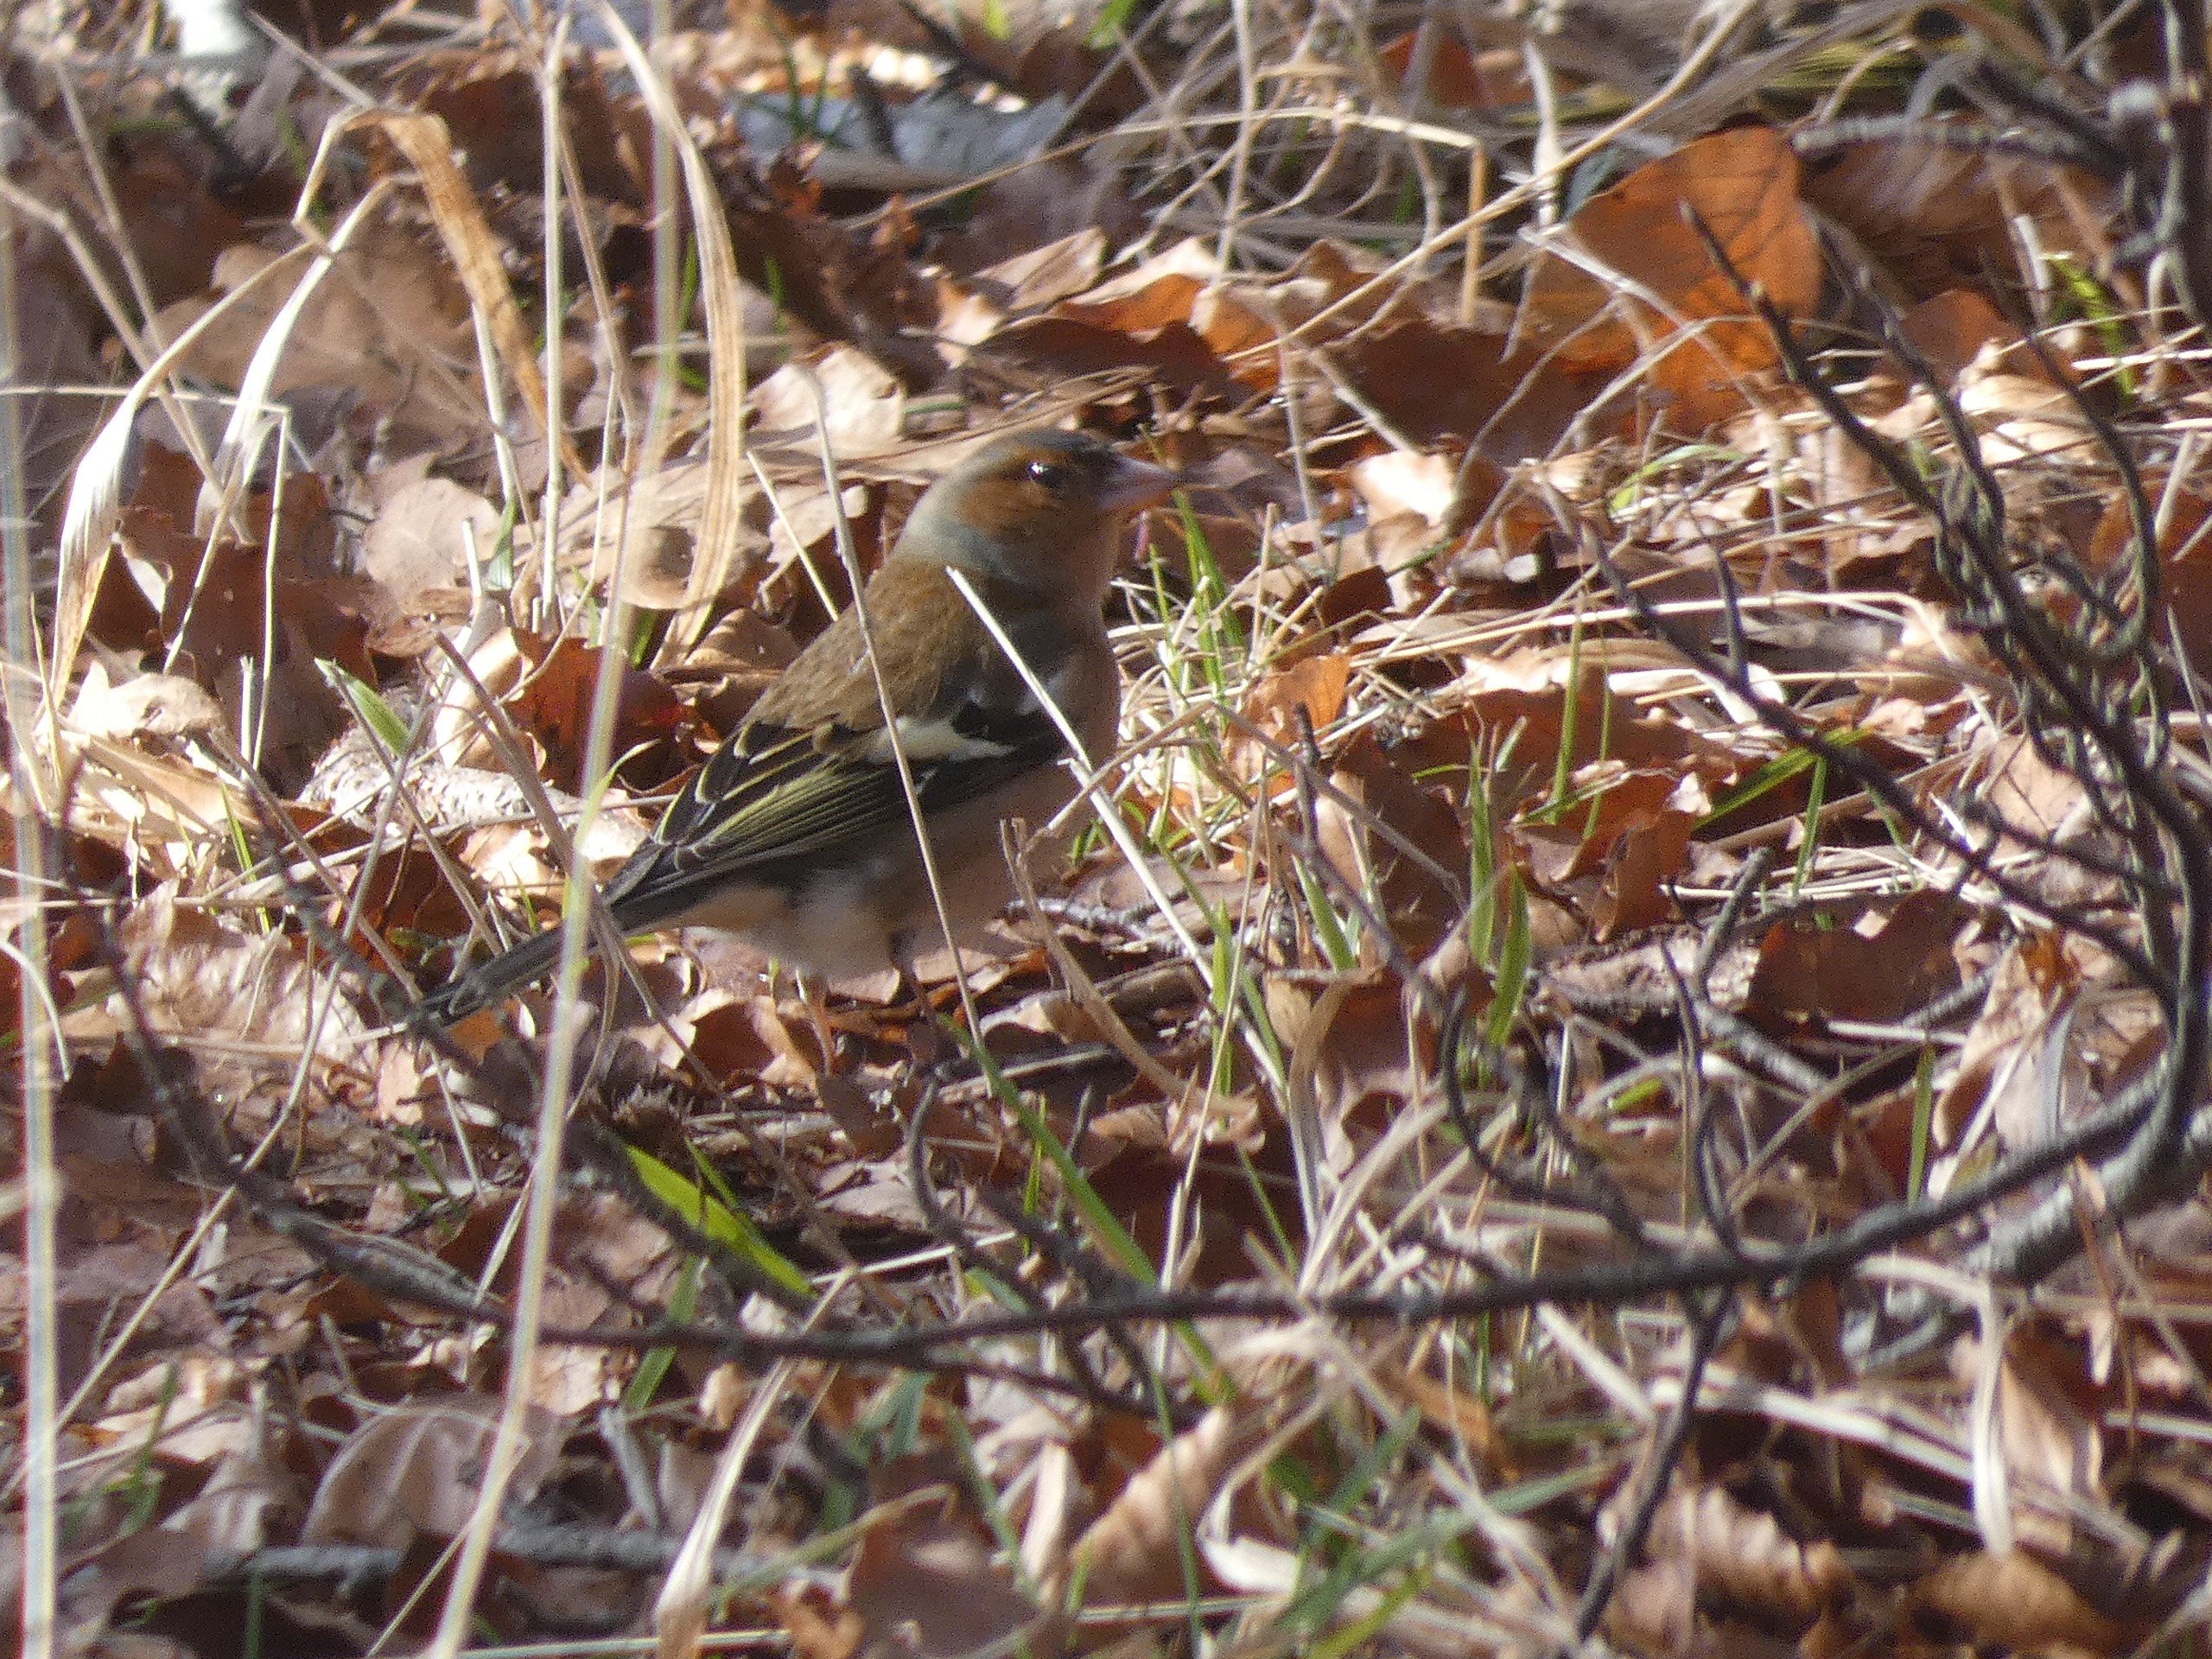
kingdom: Animalia
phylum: Chordata
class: Aves
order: Passeriformes
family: Fringillidae
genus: Fringilla
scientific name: Fringilla coelebs
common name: Bogfinke
